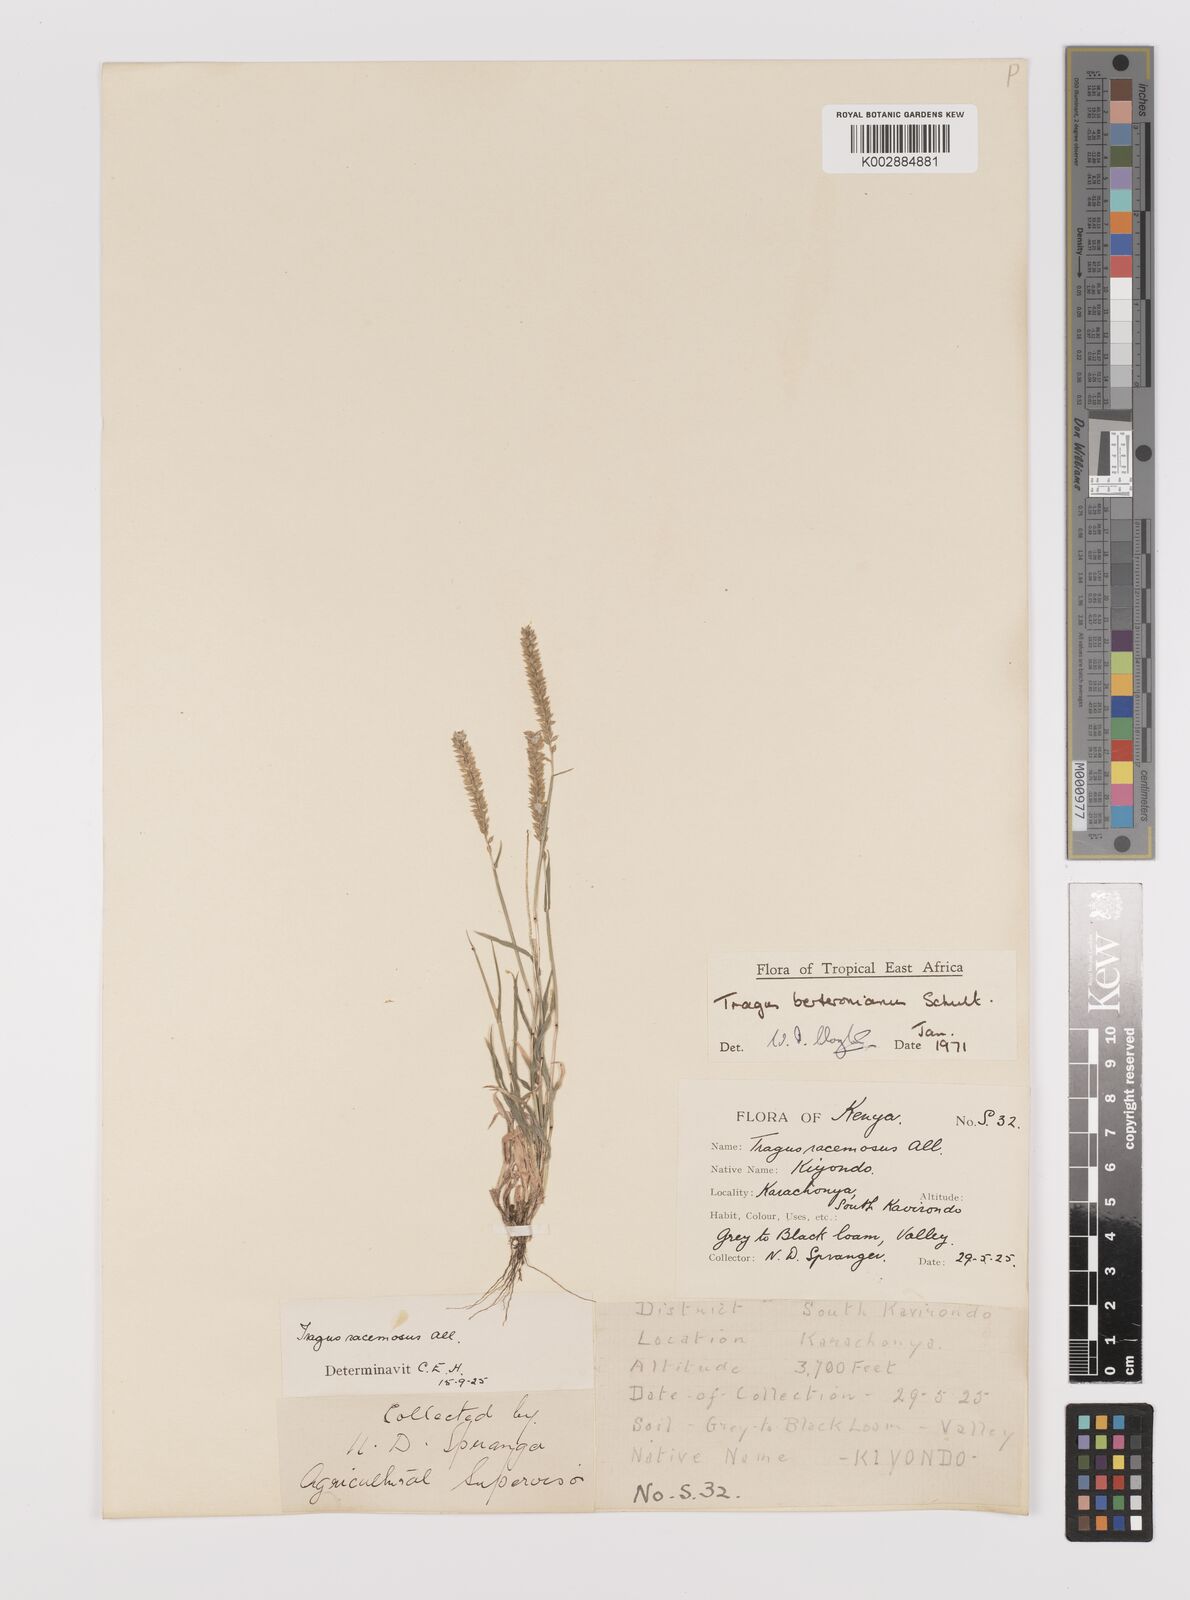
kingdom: Plantae
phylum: Tracheophyta
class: Liliopsida
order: Poales
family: Poaceae
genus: Tragus
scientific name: Tragus berteronianus
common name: African bur-grass
